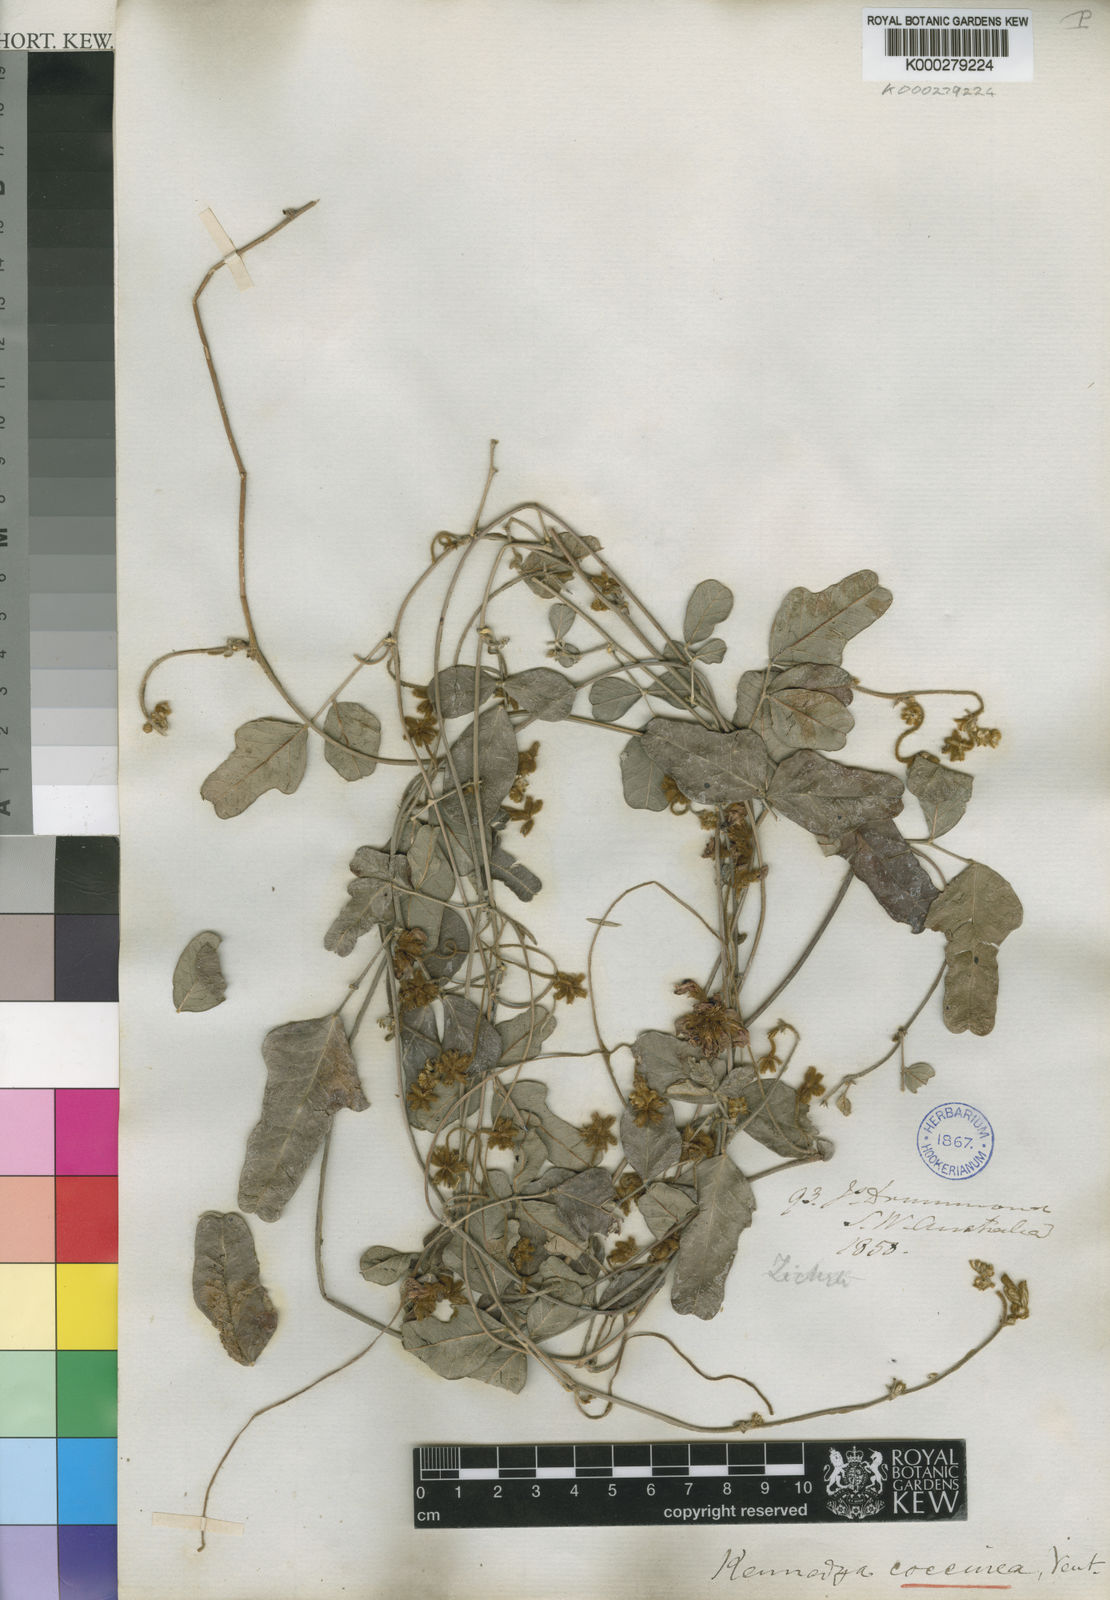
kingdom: Plantae
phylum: Tracheophyta
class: Magnoliopsida
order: Fabales
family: Fabaceae
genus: Kennedia
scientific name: Kennedia coccinea
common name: Coralvine
